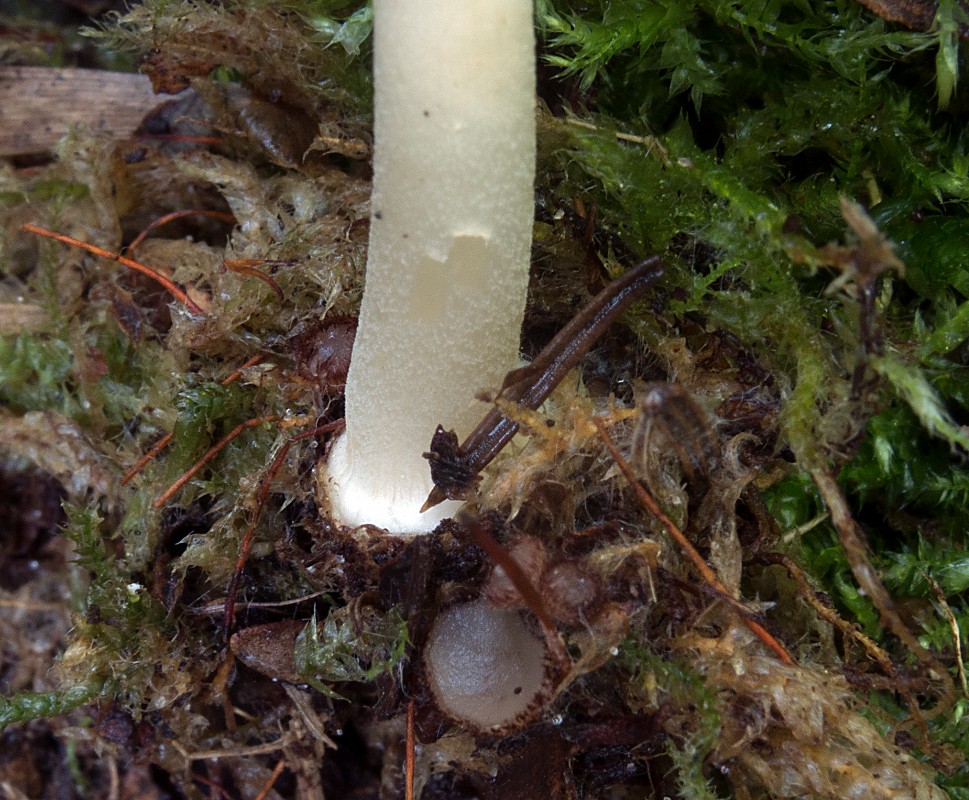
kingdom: Fungi
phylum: Basidiomycota
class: Agaricomycetes
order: Agaricales
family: Inocybaceae
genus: Inocybe
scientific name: Inocybe mixtilis
